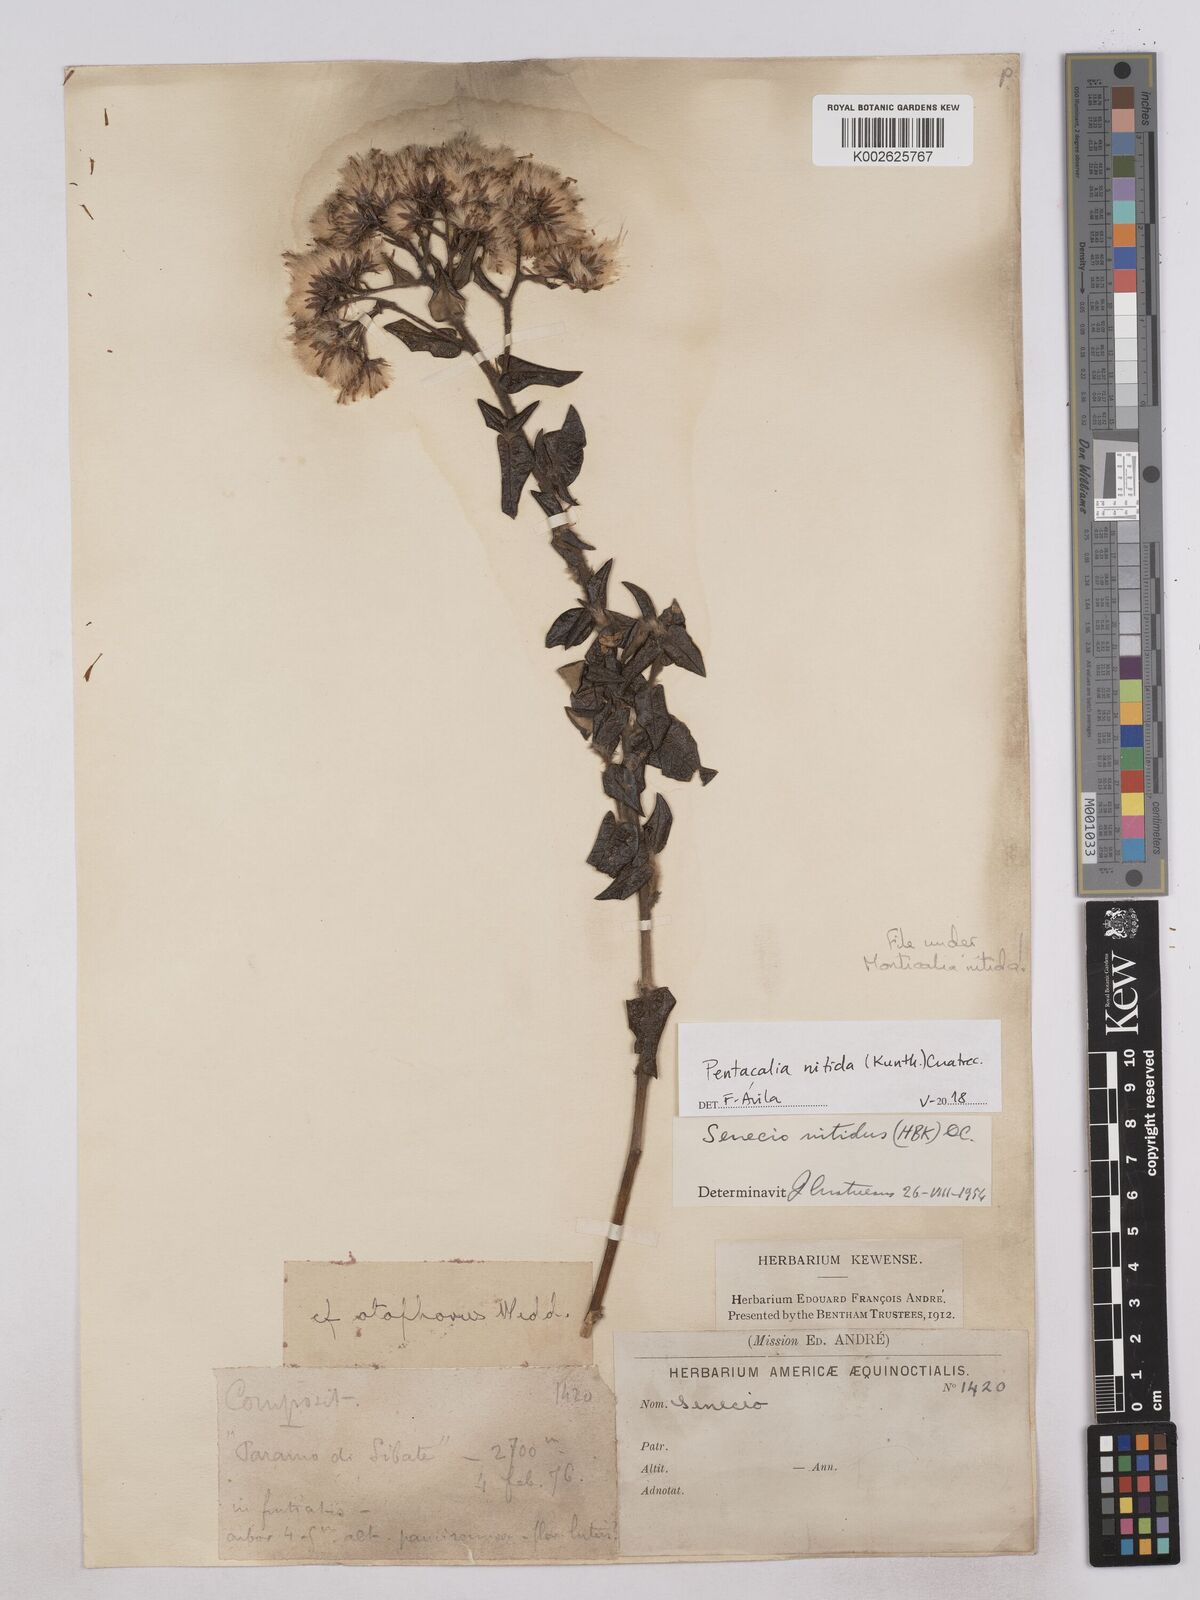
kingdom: Plantae
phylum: Tracheophyta
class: Magnoliopsida
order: Asterales
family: Asteraceae
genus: Monticalia
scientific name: Monticalia nitida
